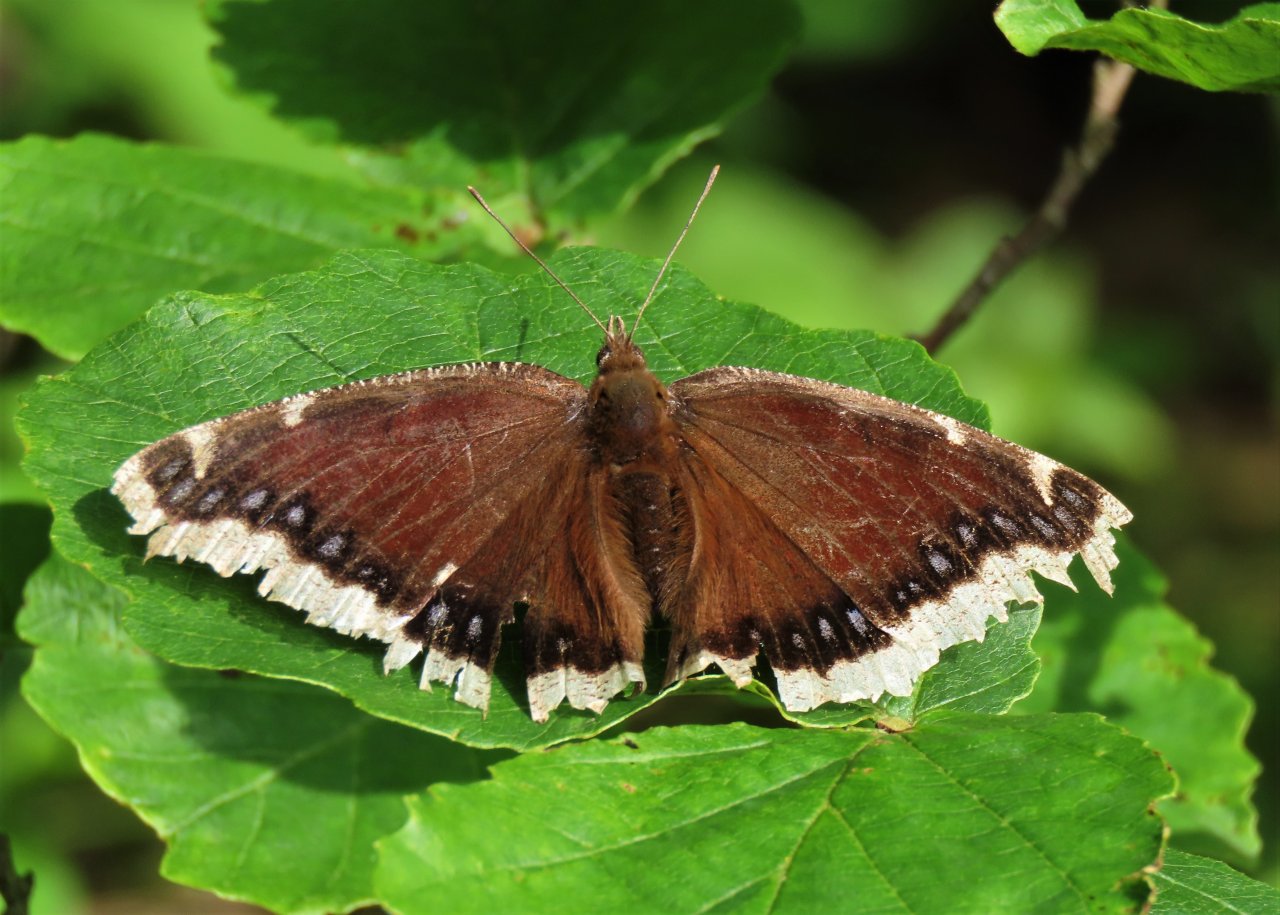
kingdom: Animalia
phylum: Arthropoda
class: Insecta
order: Lepidoptera
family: Nymphalidae
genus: Nymphalis
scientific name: Nymphalis antiopa
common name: Mourning Cloak
